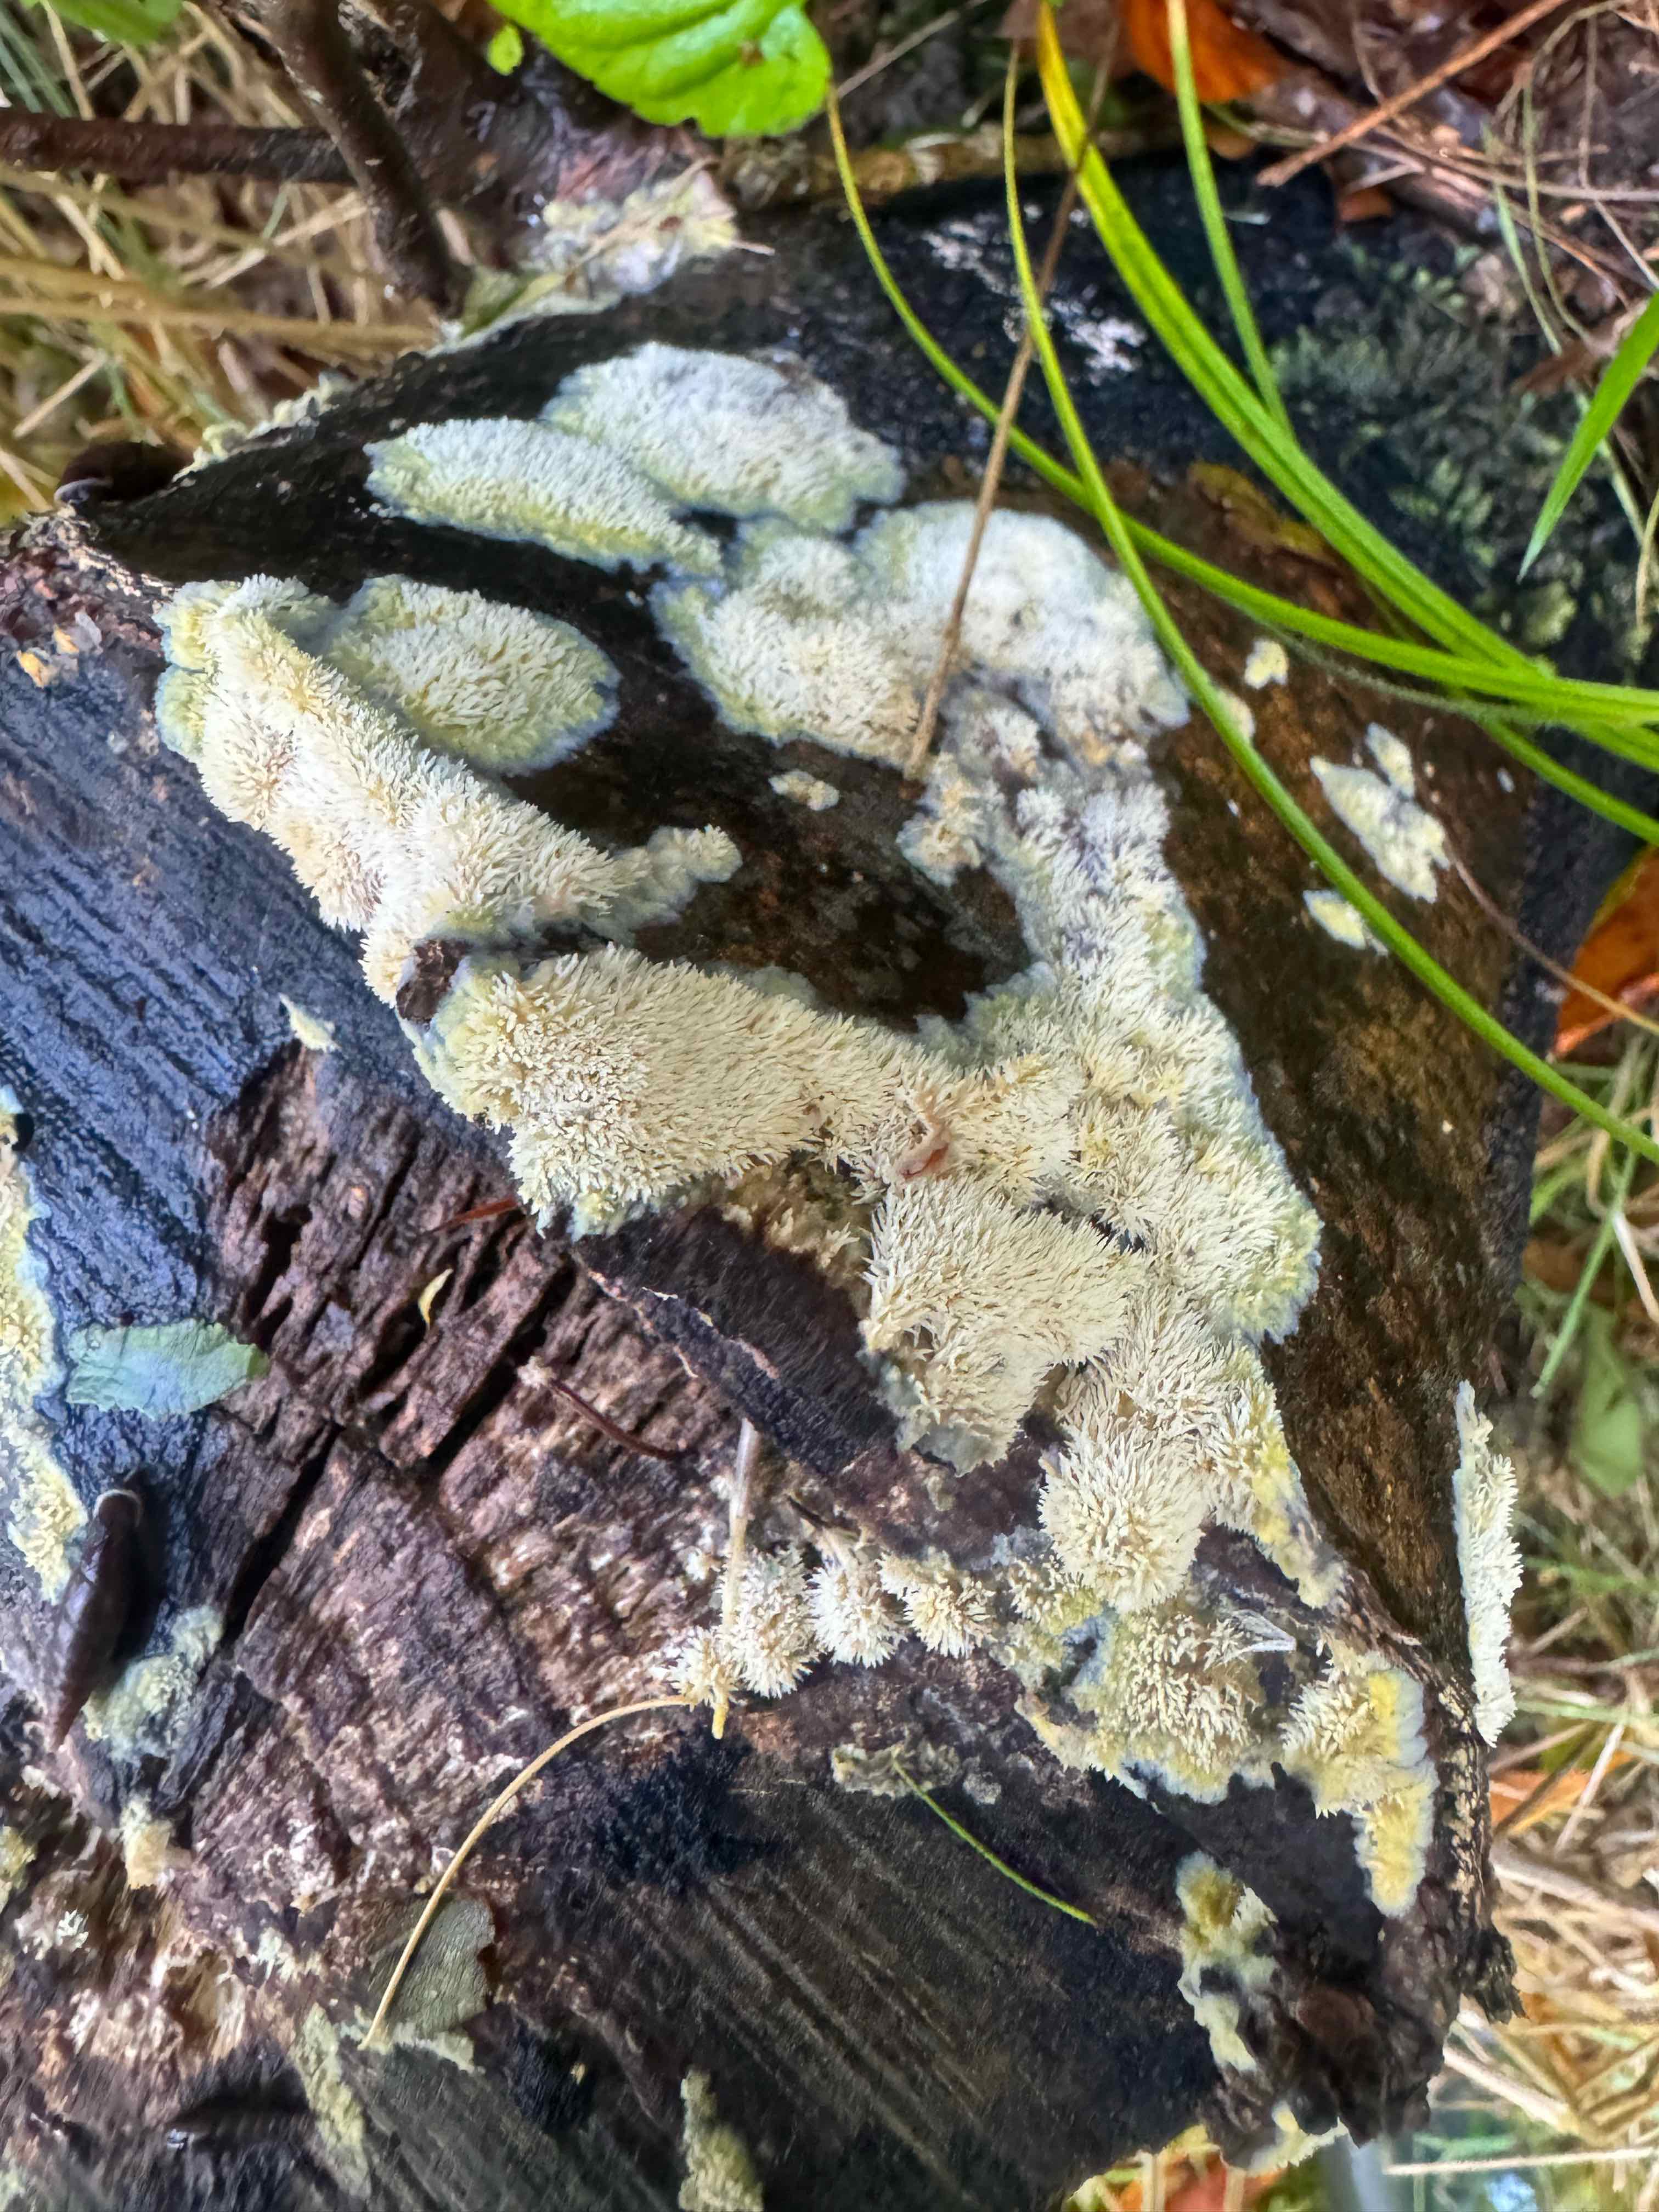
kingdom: Fungi
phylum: Basidiomycota
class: Agaricomycetes
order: Polyporales
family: Meruliaceae
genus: Mycoacia
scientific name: Mycoacia uda
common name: citrongul vokspig
